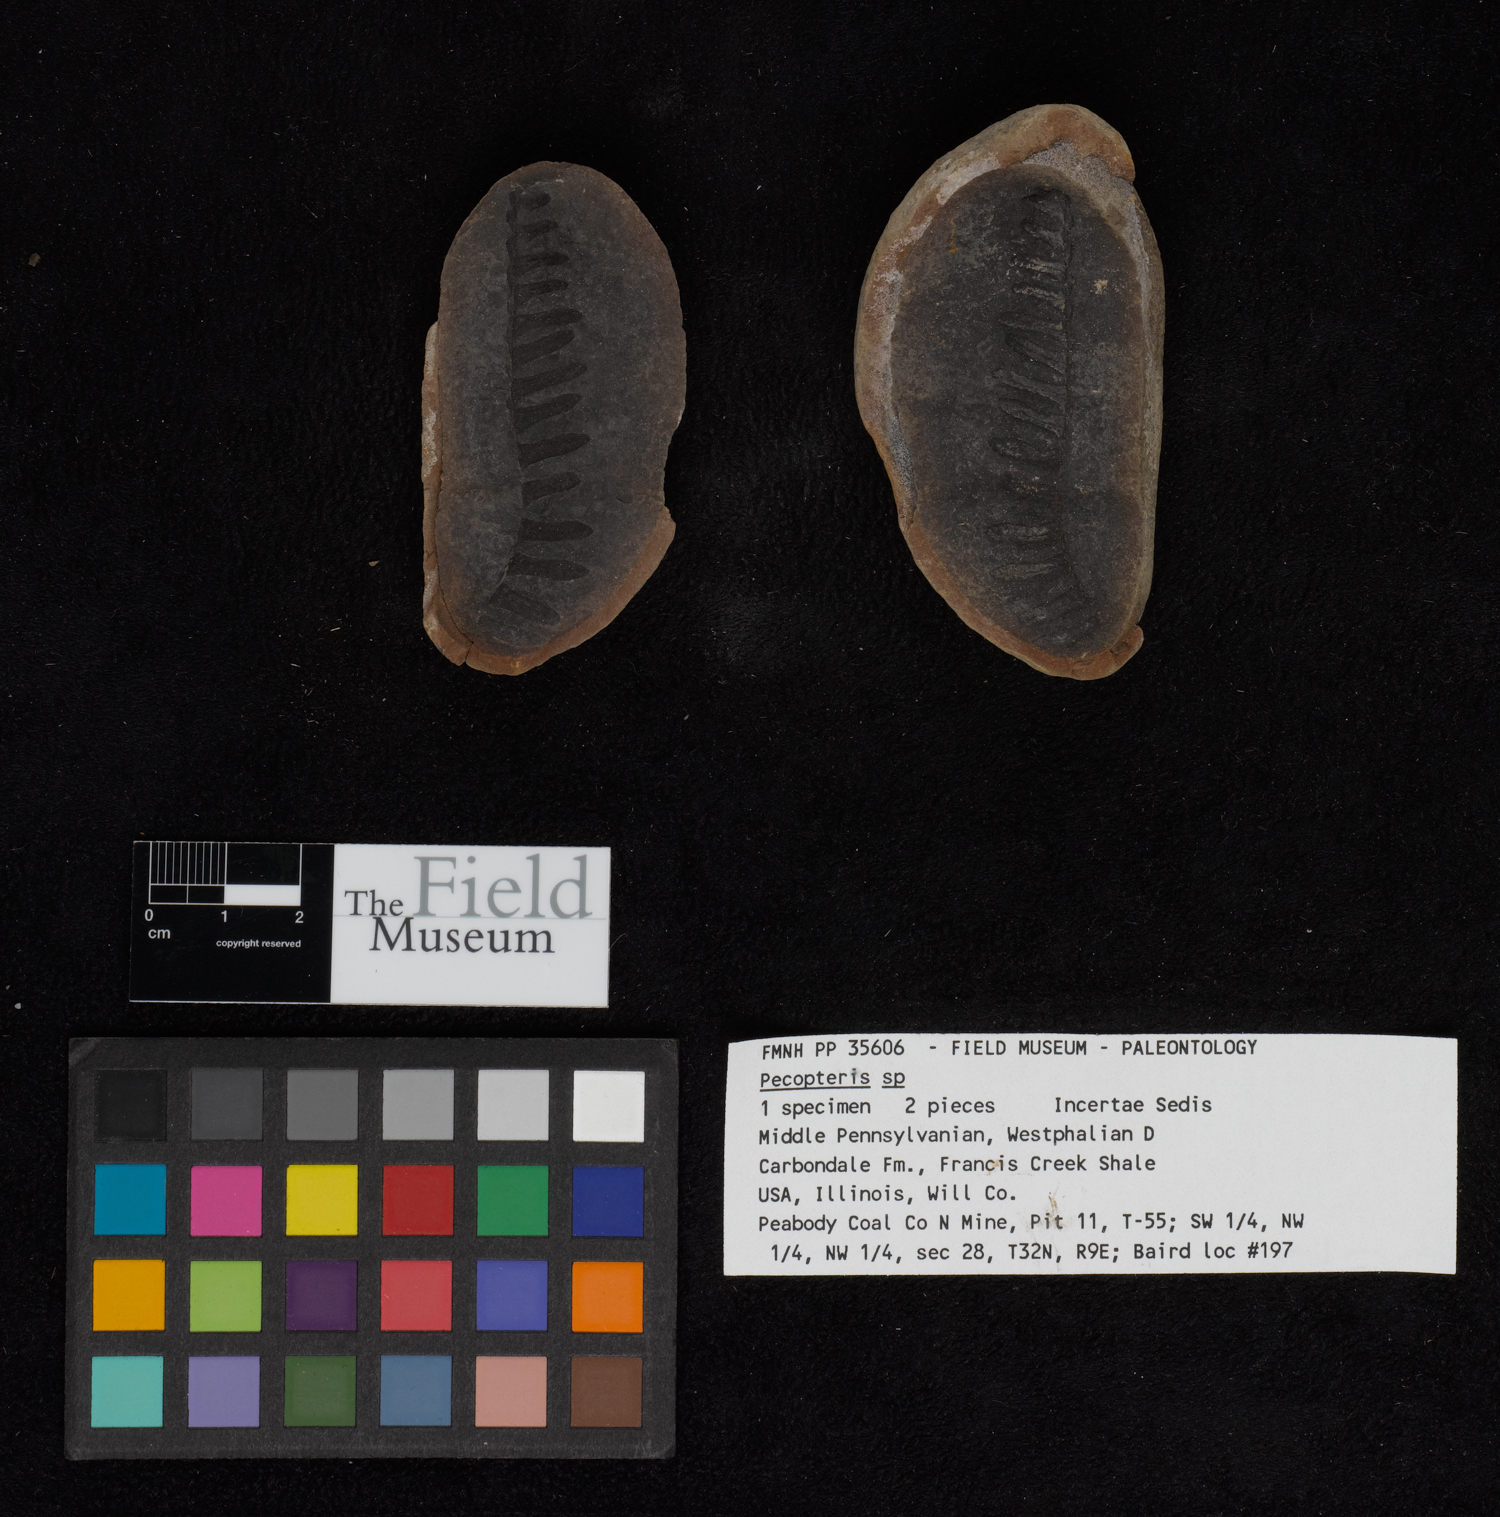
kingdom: Plantae
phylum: Tracheophyta
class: Polypodiopsida
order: Marattiales
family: Asterothecaceae
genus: Pecopteris
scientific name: Pecopteris
